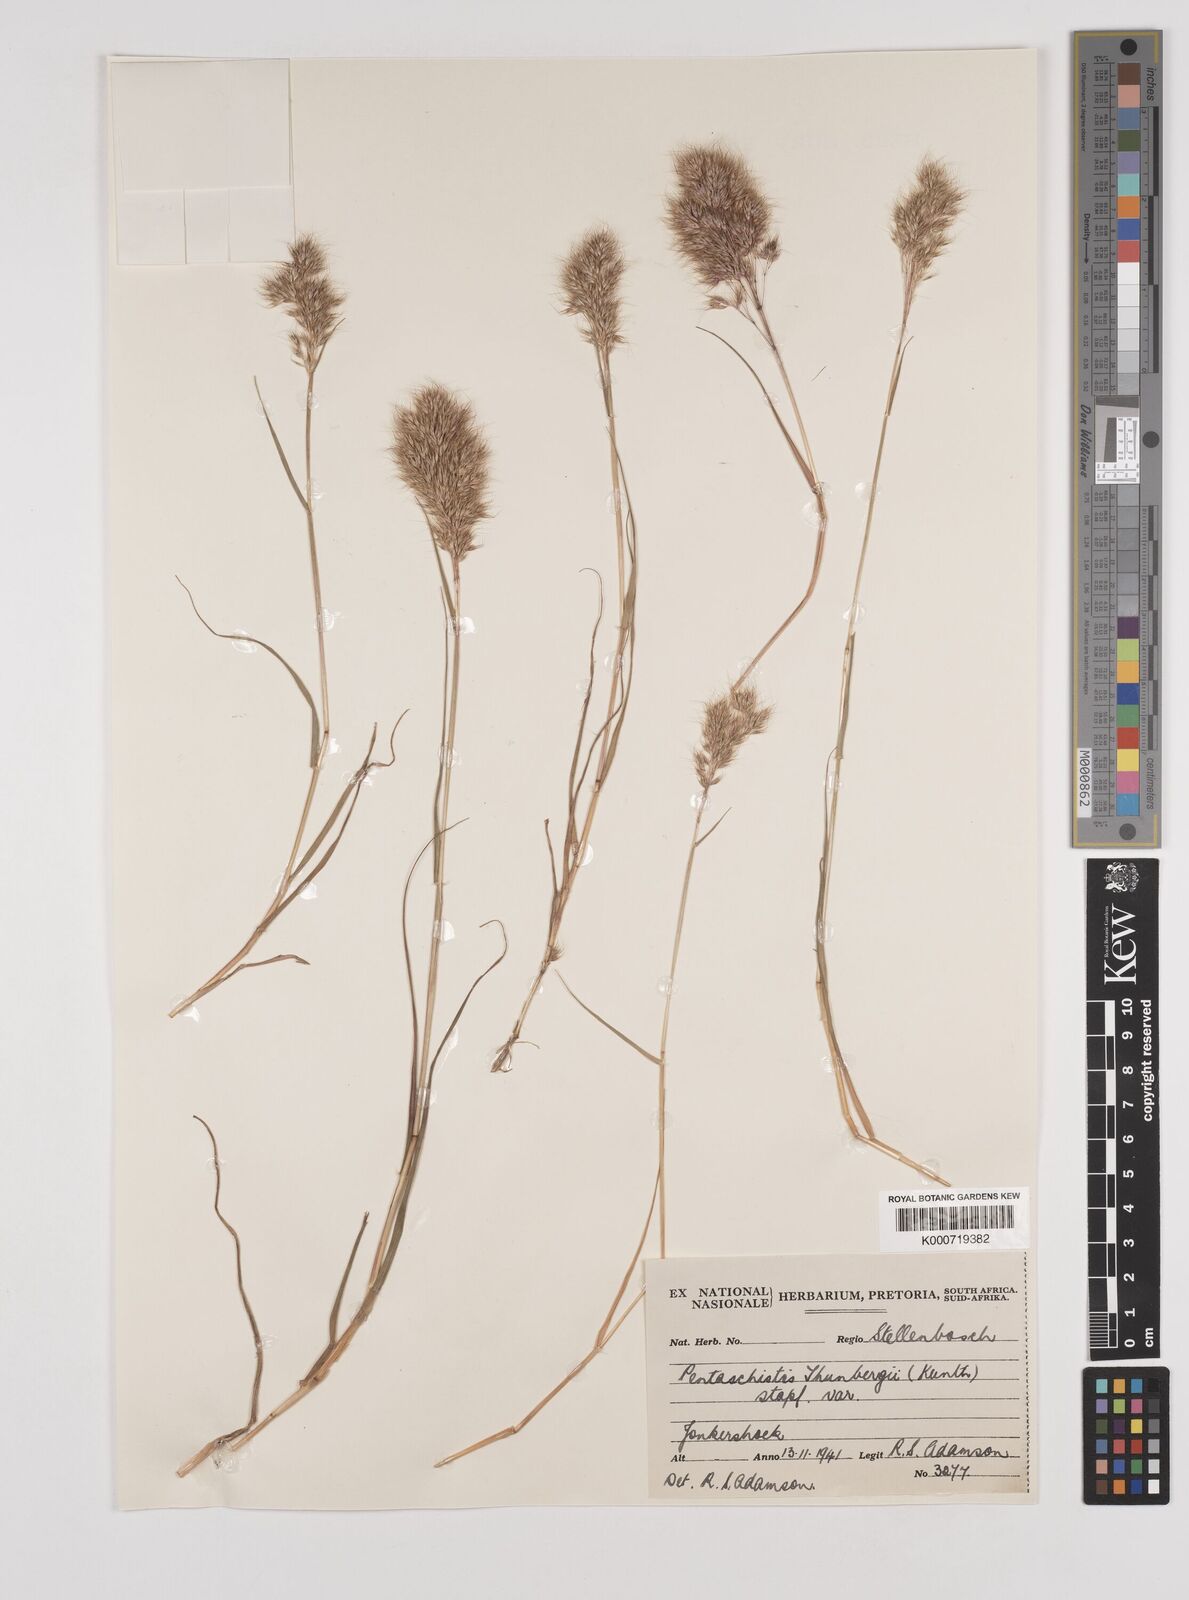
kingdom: Plantae
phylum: Tracheophyta
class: Liliopsida
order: Poales
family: Poaceae
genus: Pentameris
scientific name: Pentameris triseta
